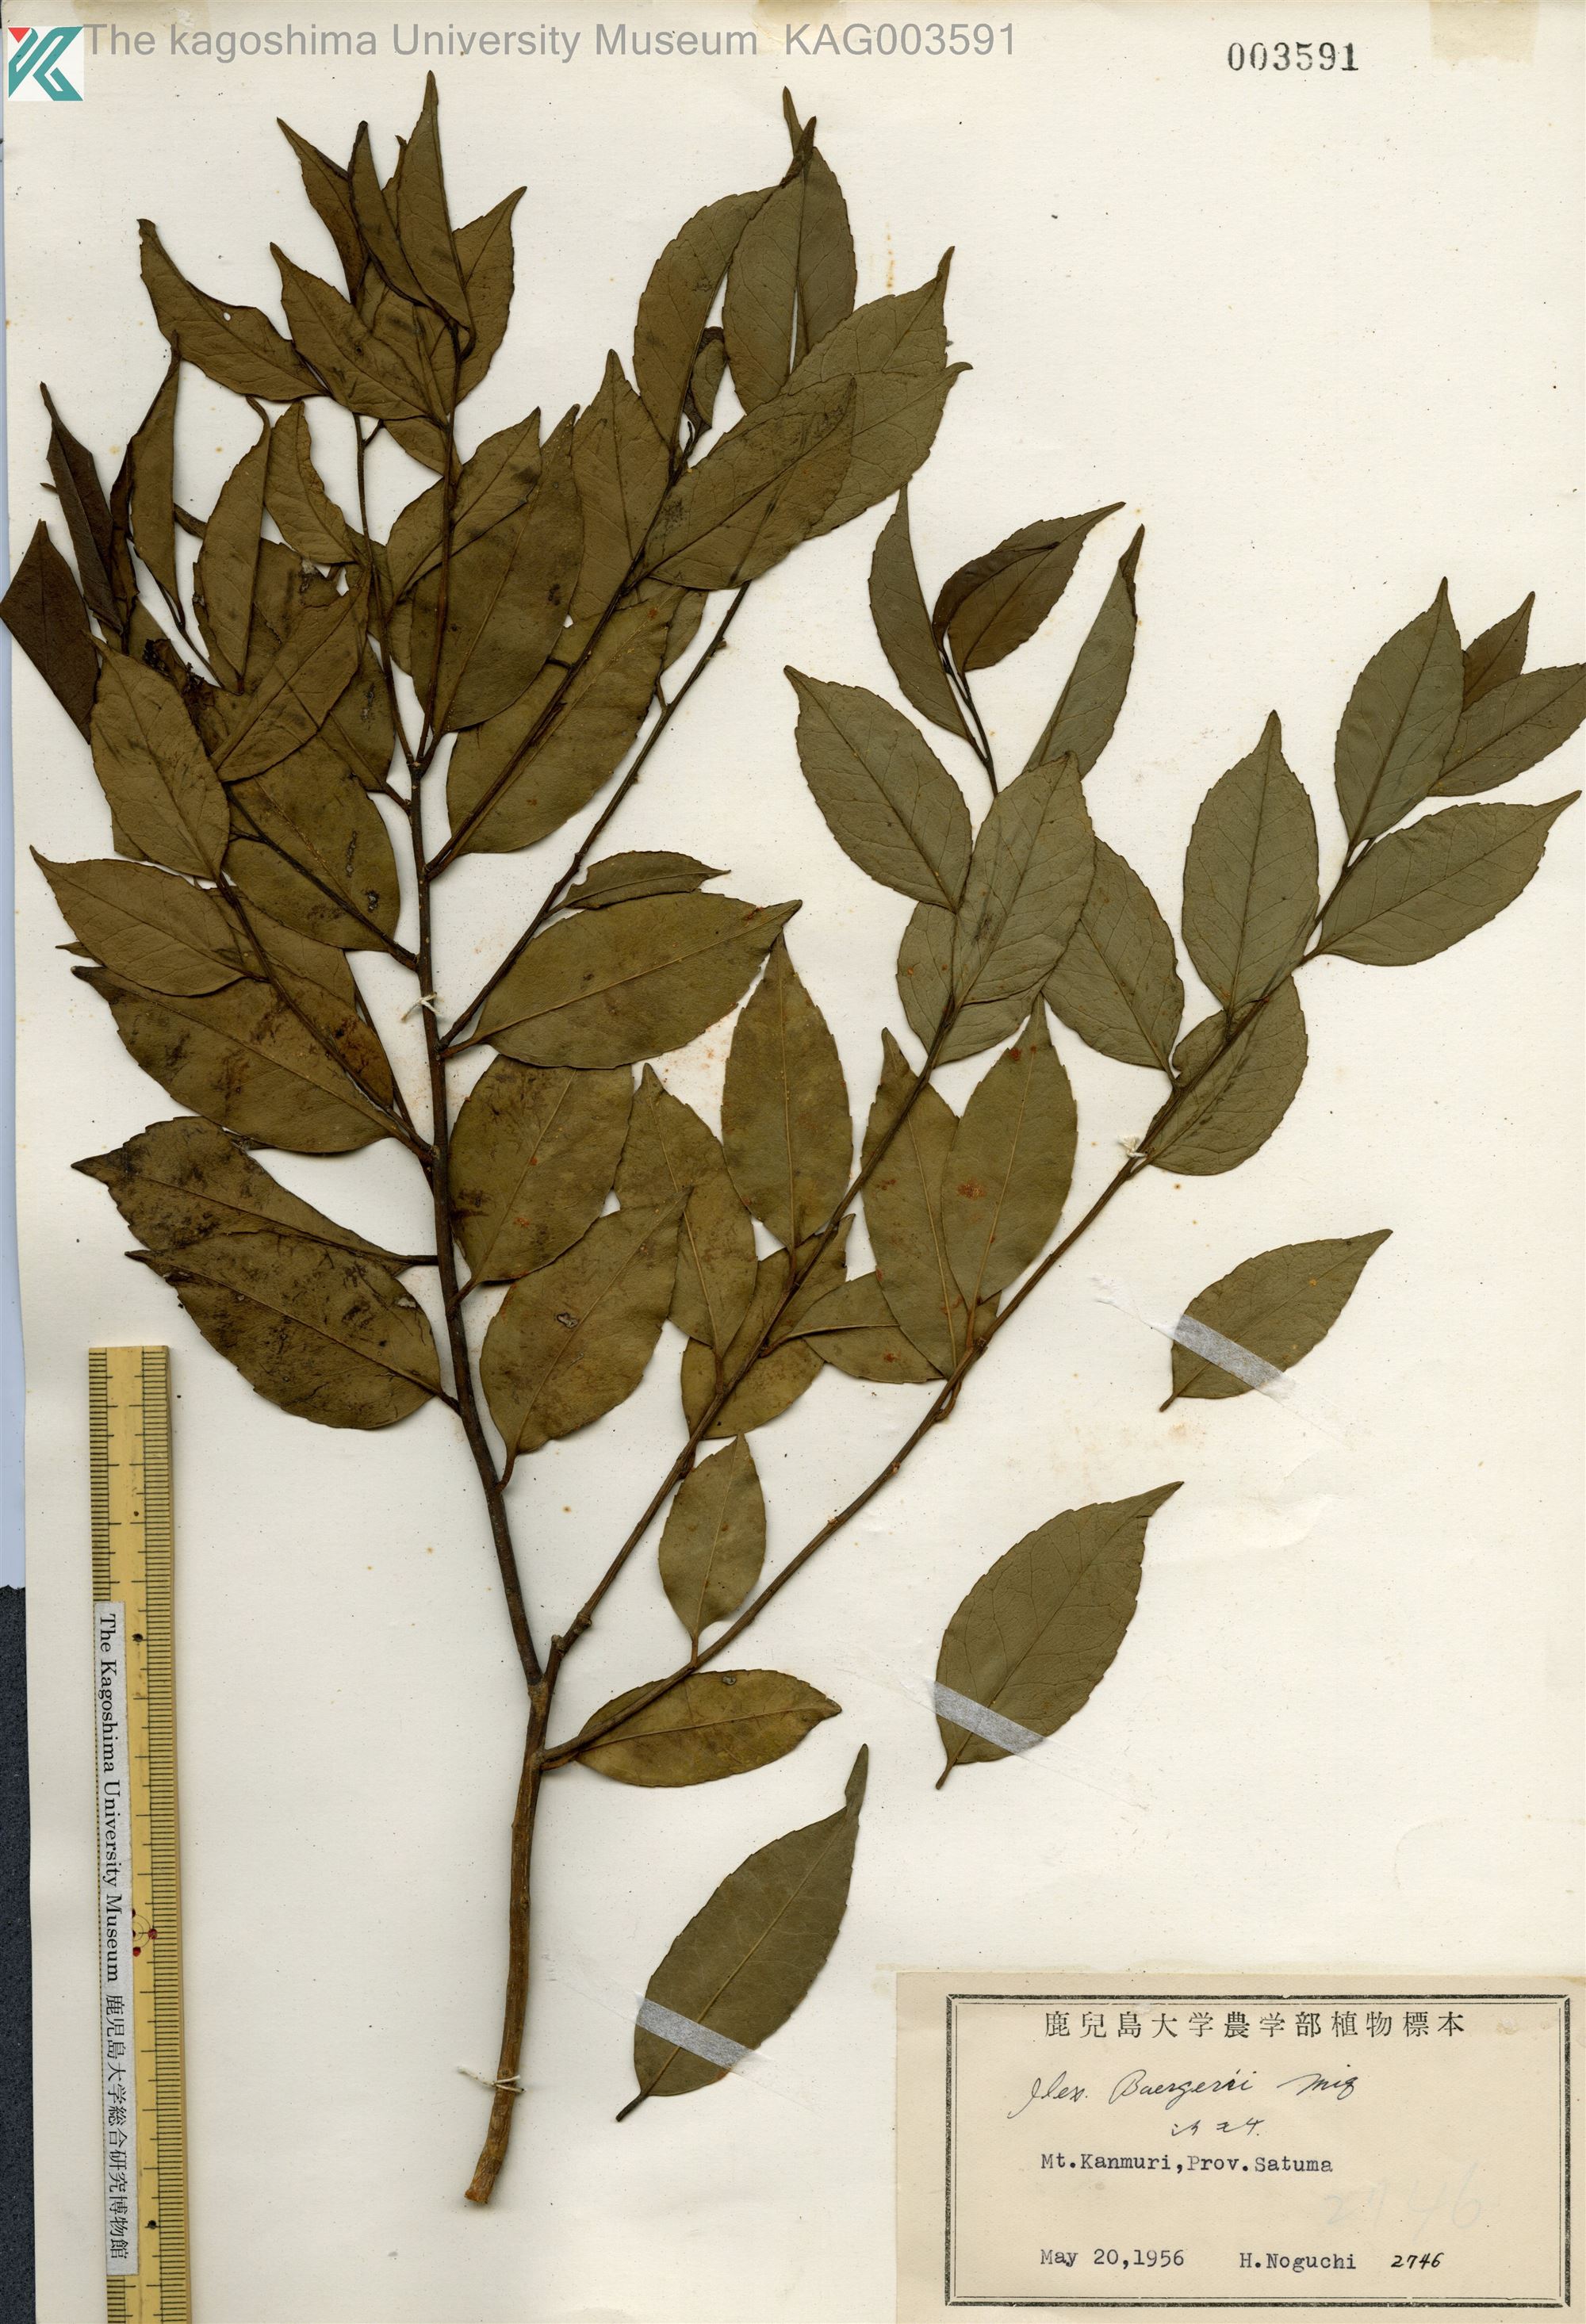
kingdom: Plantae
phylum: Tracheophyta
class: Magnoliopsida
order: Aquifoliales
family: Aquifoliaceae
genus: Ilex
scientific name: Ilex buergeri
